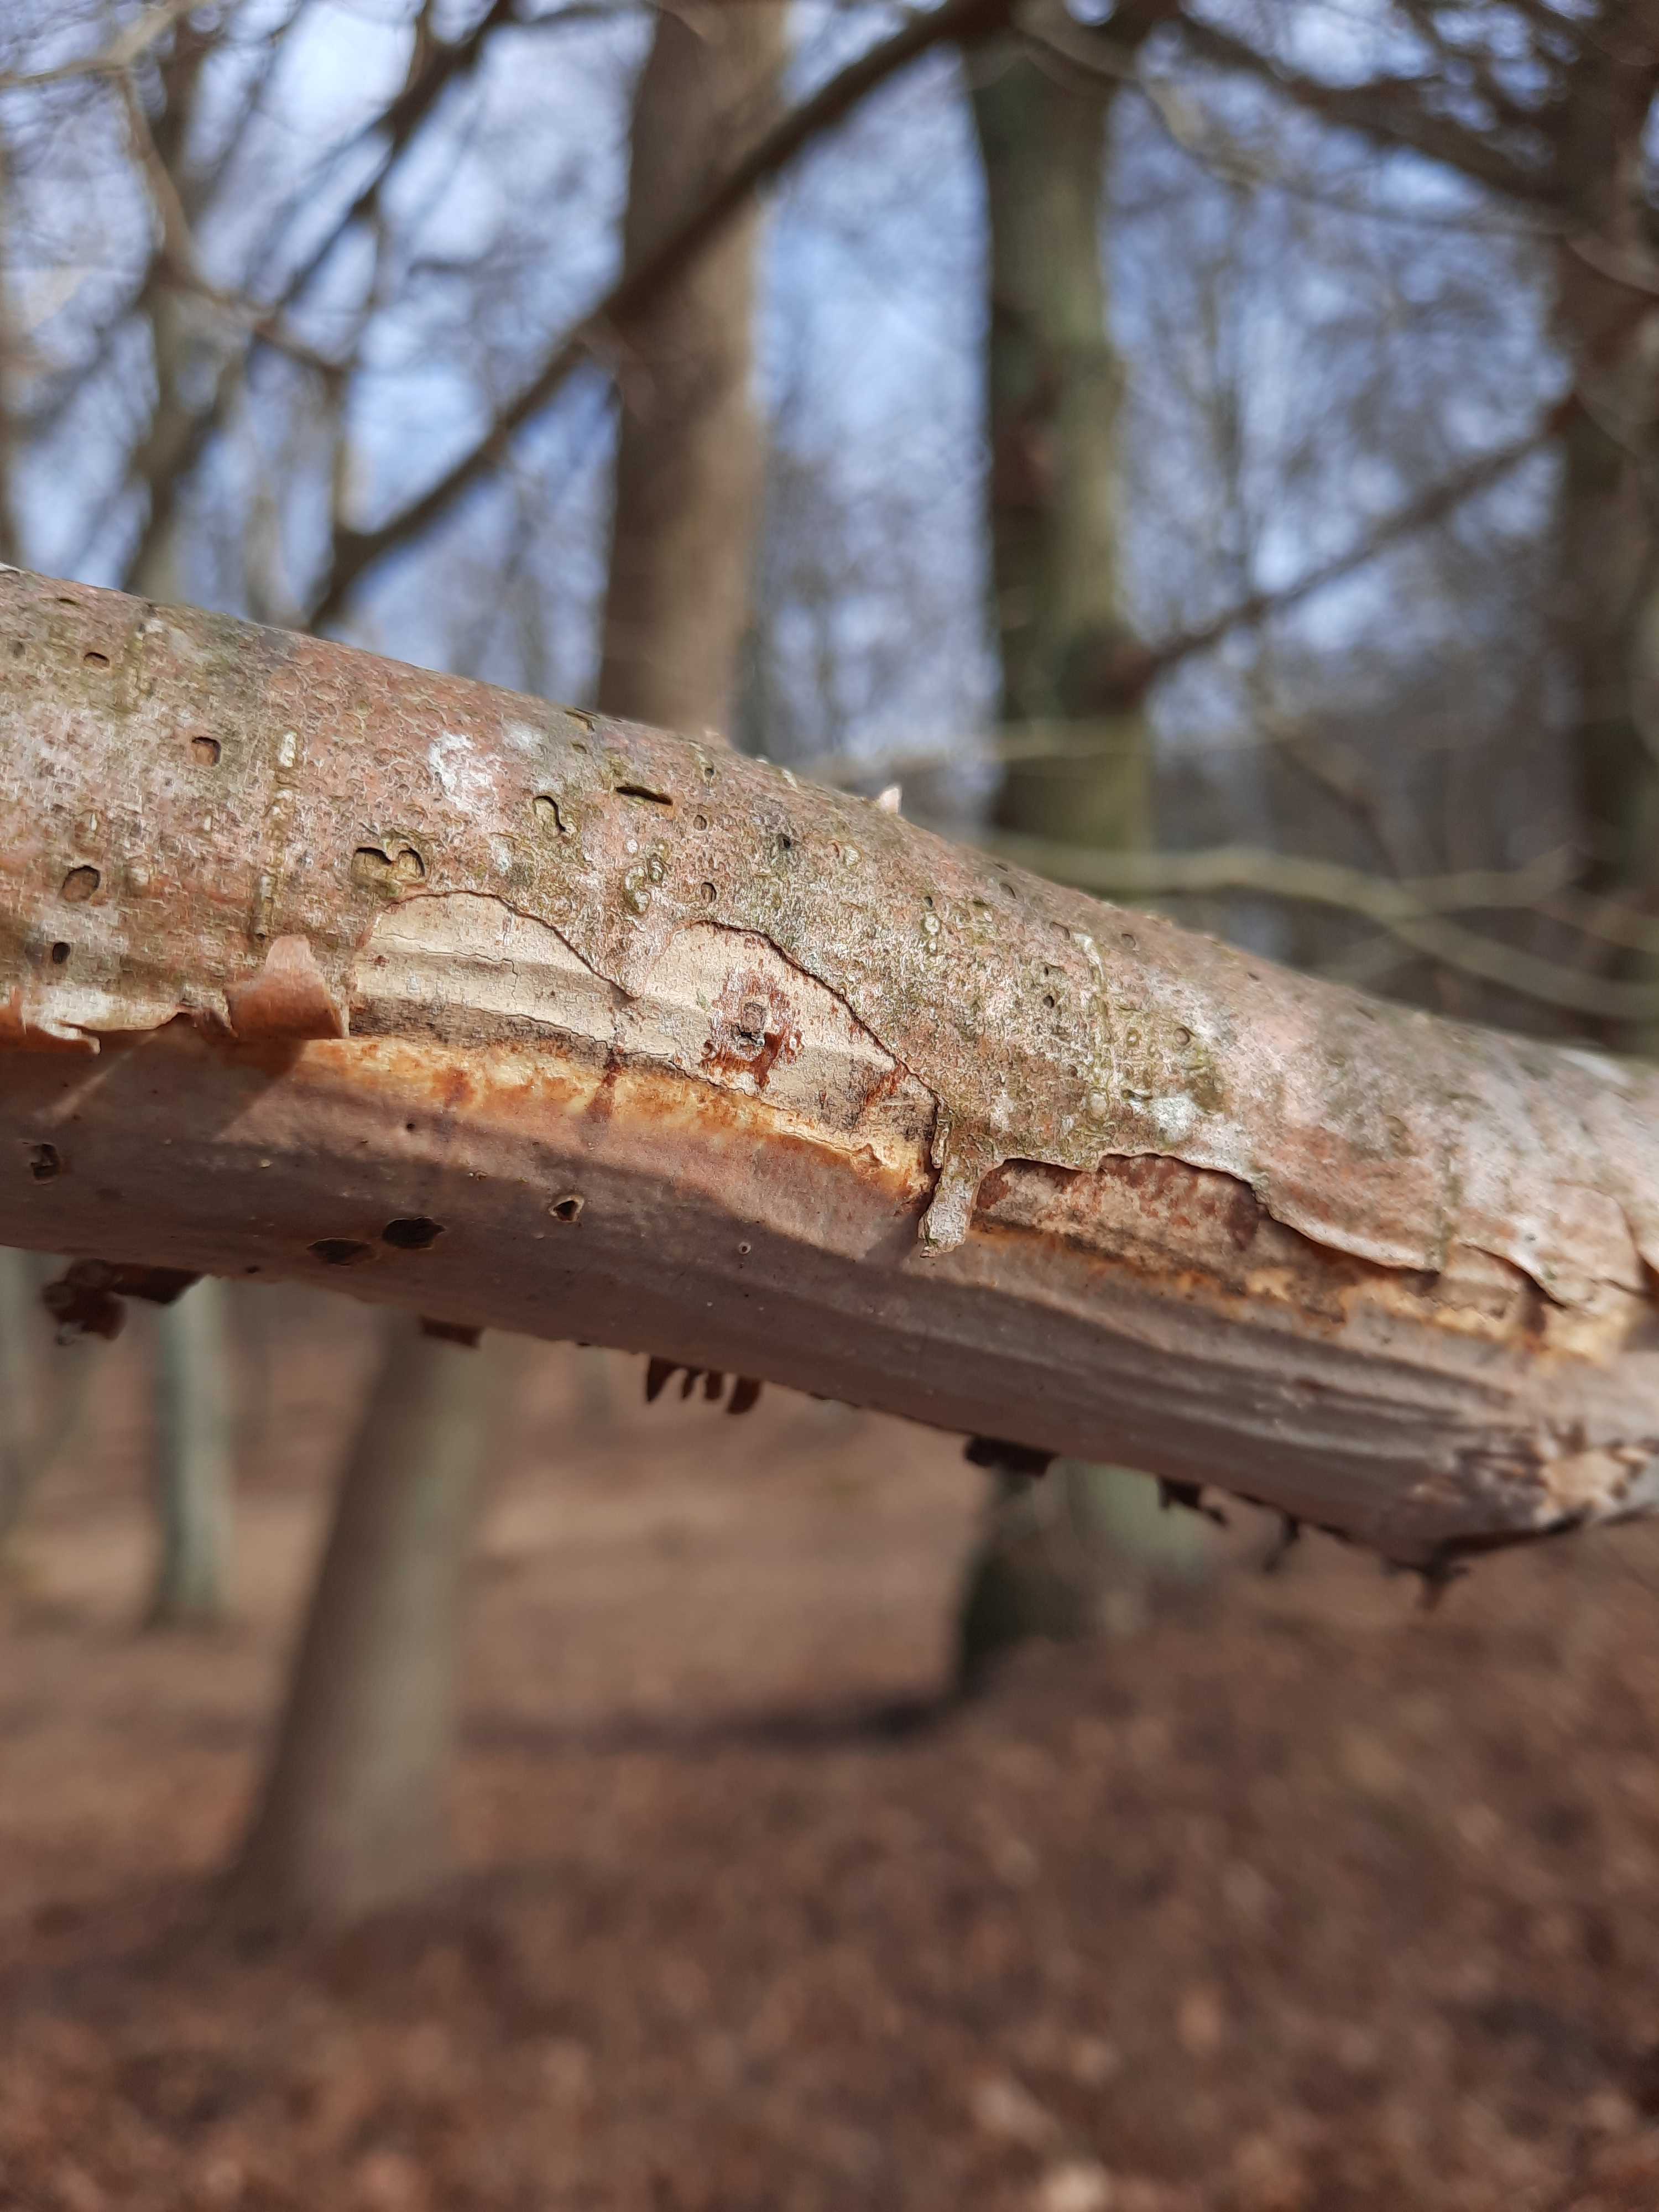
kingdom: Fungi
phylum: Basidiomycota
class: Agaricomycetes
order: Corticiales
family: Vuilleminiaceae
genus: Vuilleminia
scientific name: Vuilleminia coryli
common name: hassel-barksprænger
